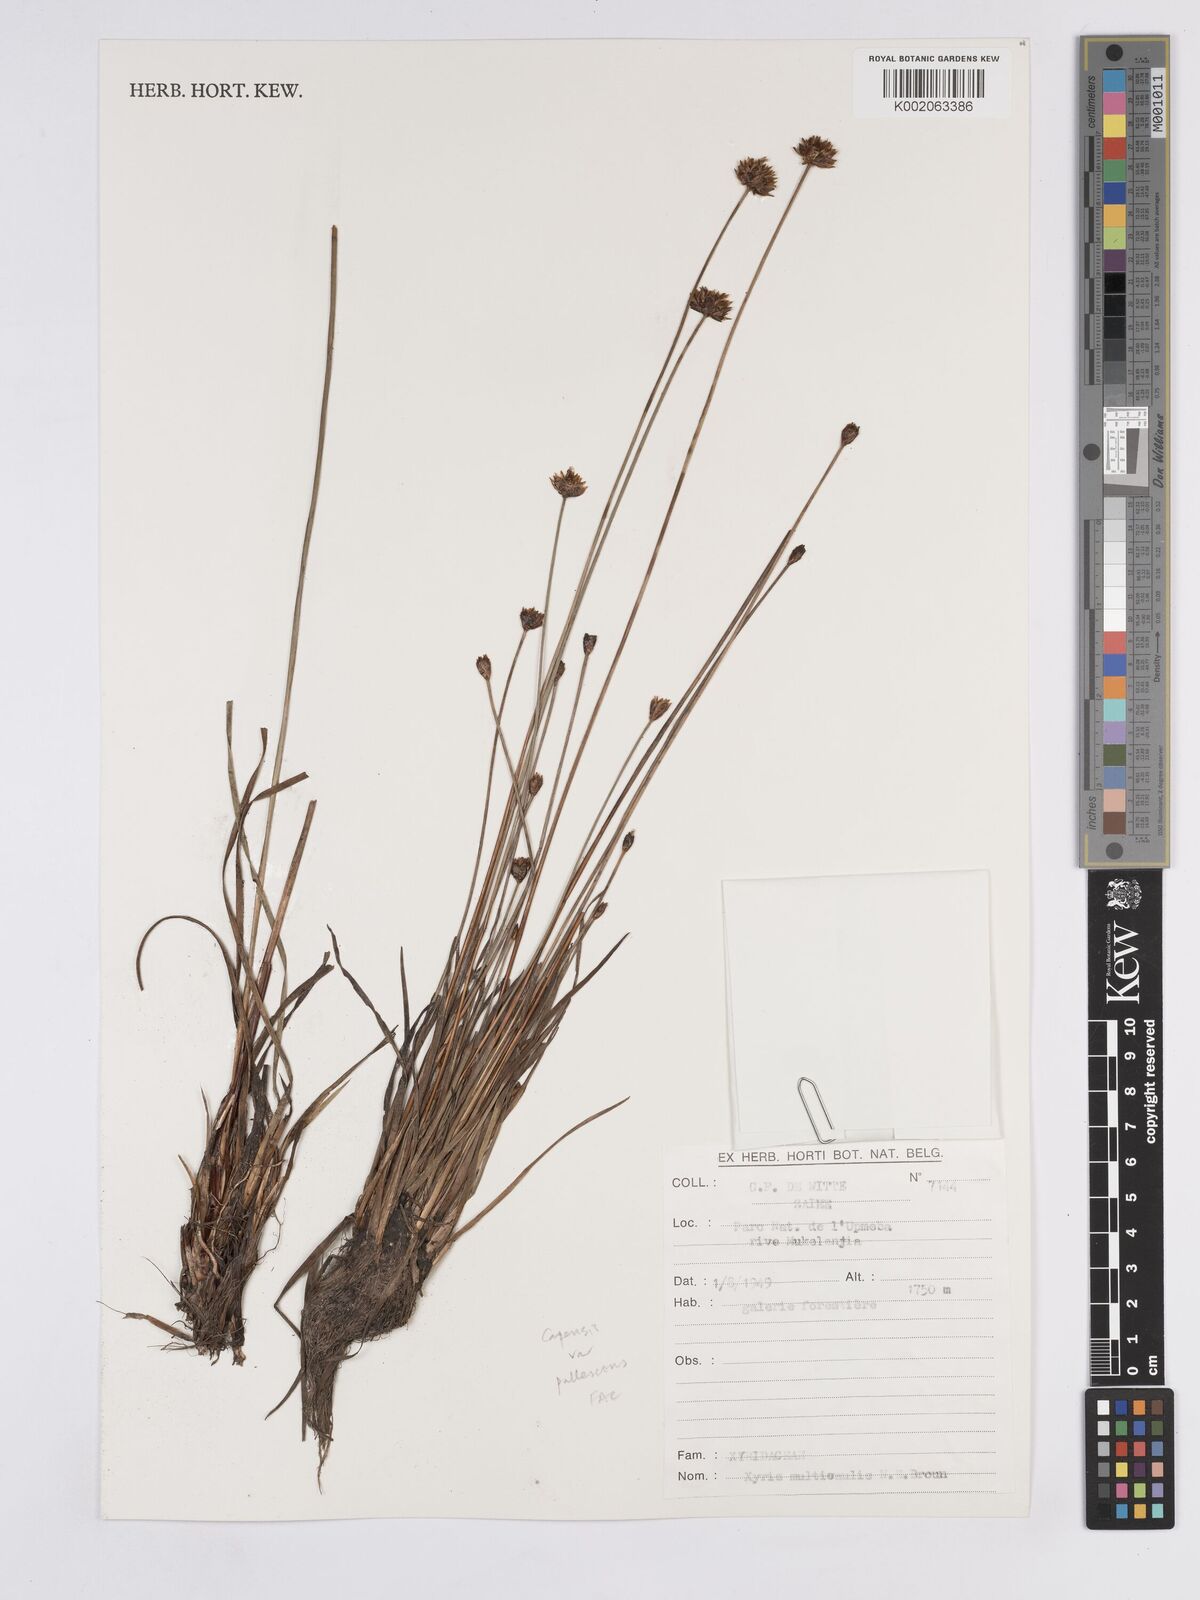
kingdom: Plantae
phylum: Tracheophyta
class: Liliopsida
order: Poales
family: Xyridaceae
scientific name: Xyridaceae
